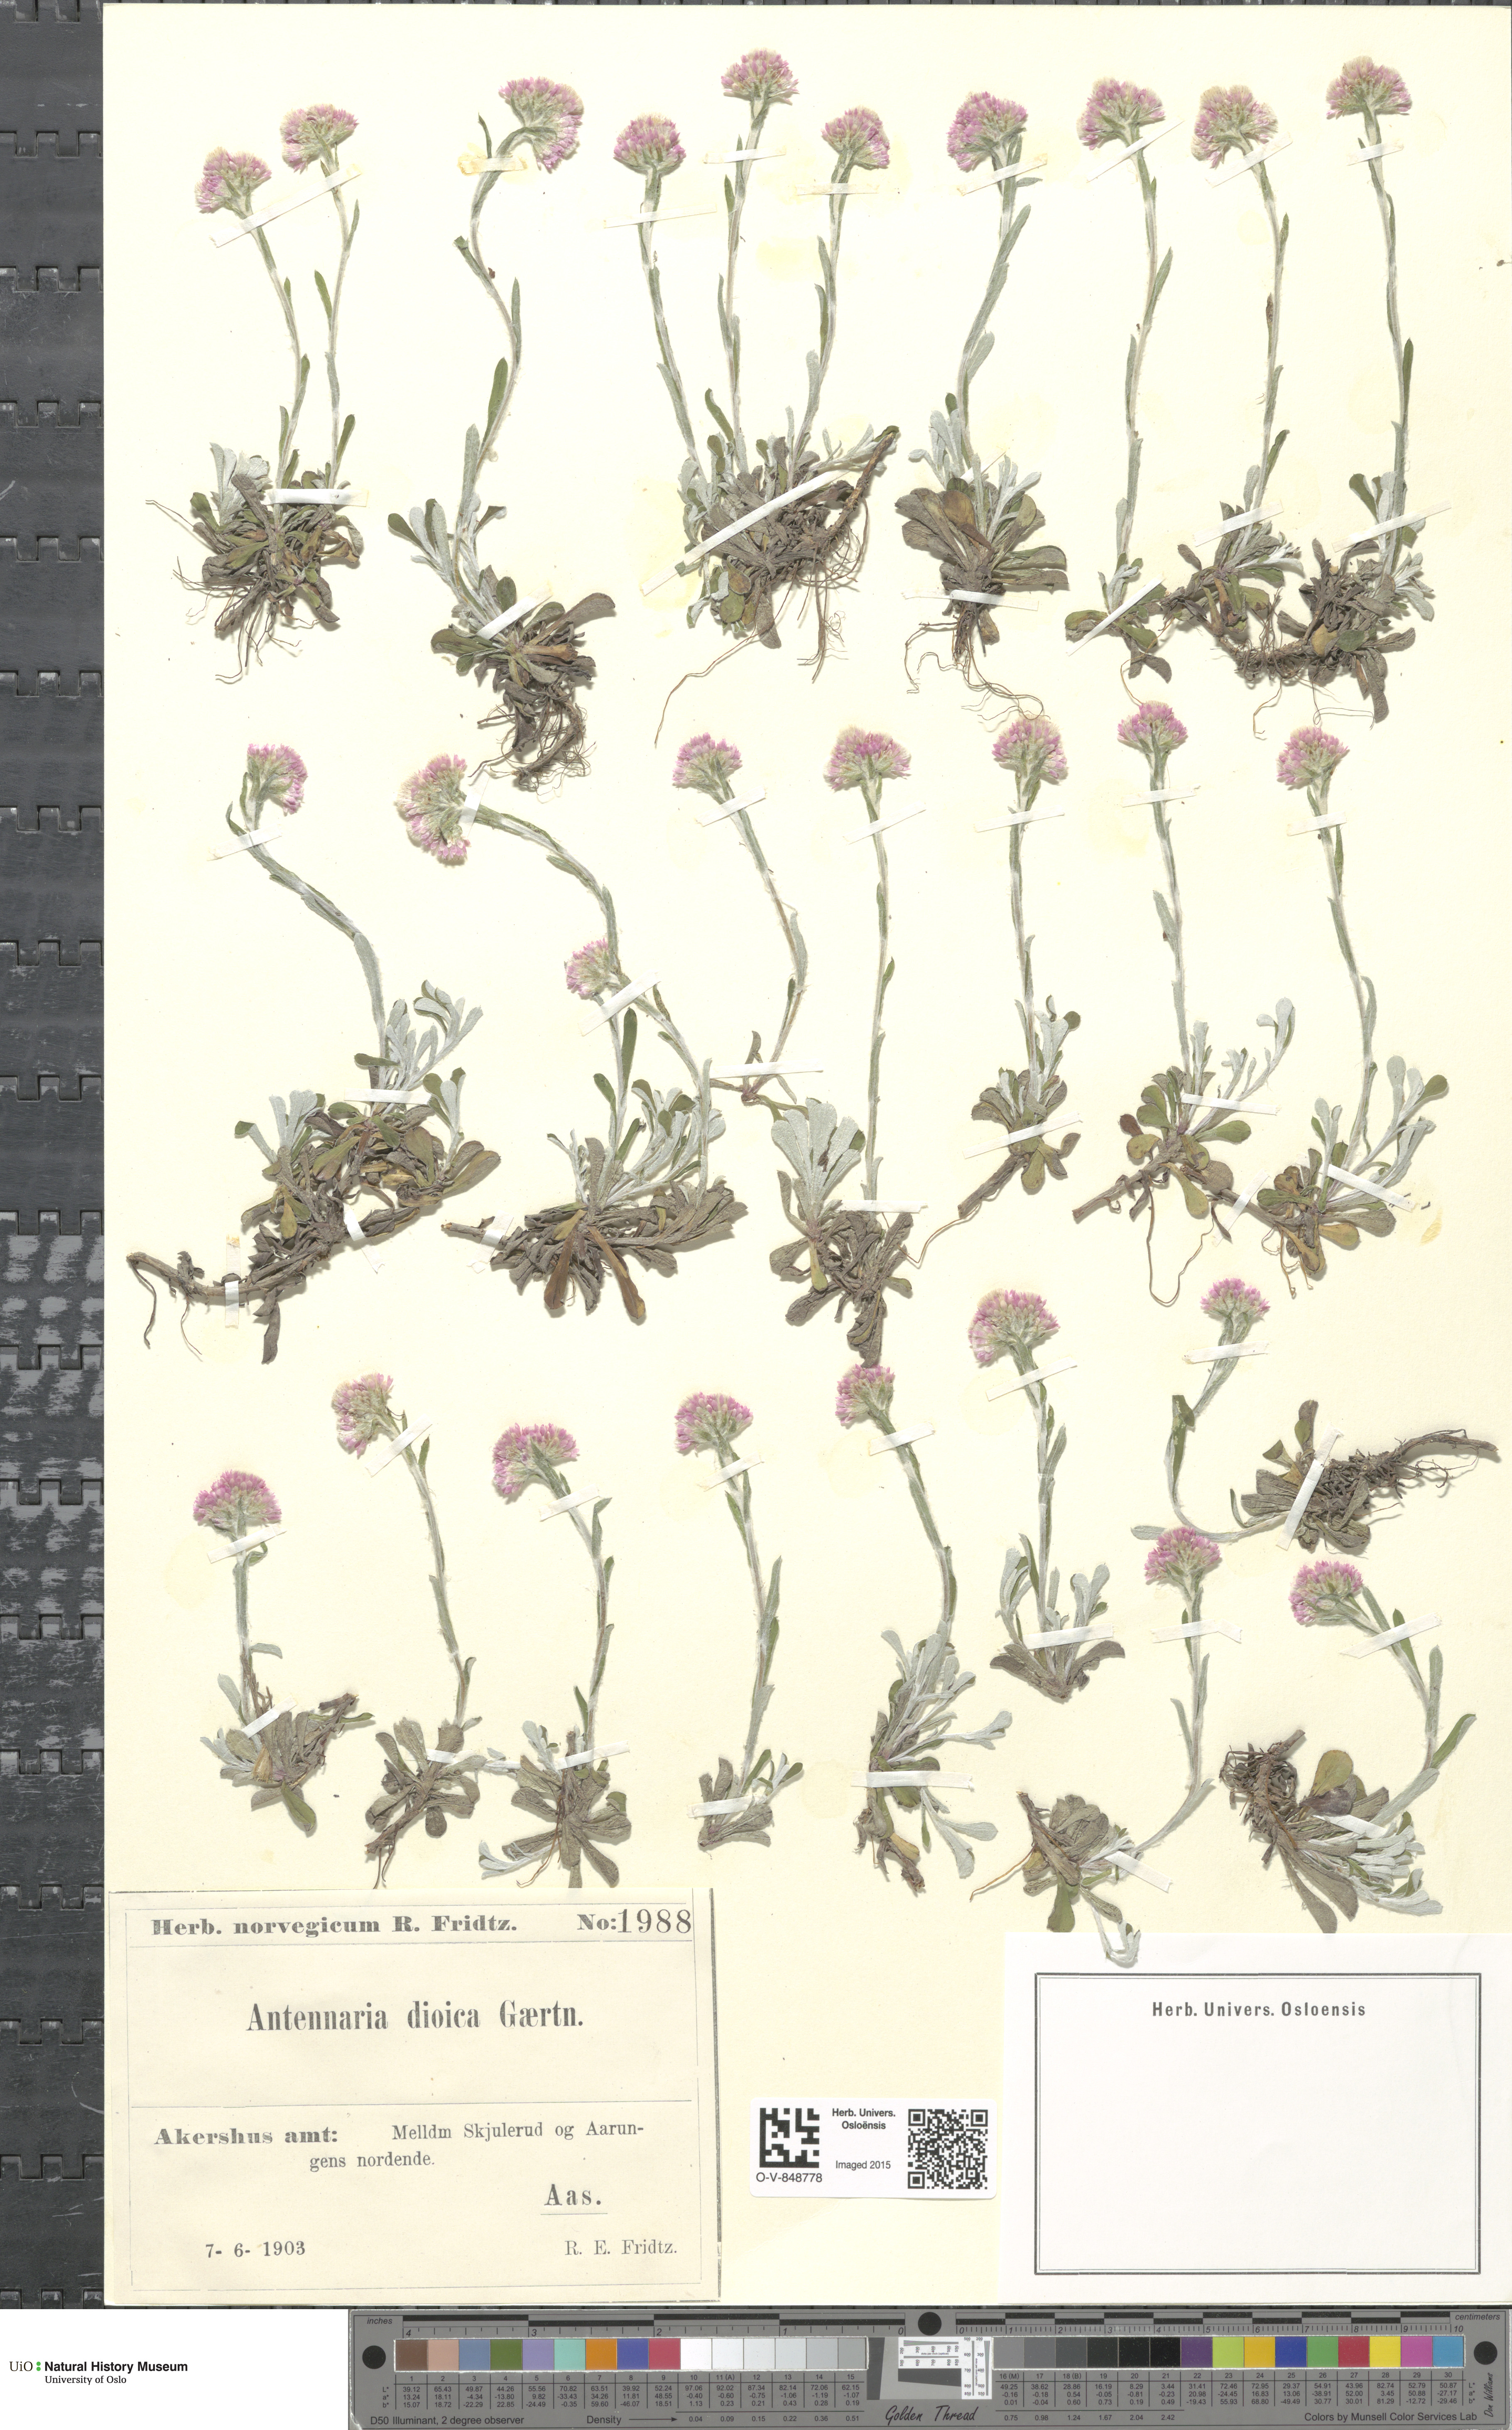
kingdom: Plantae
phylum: Tracheophyta
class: Magnoliopsida
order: Asterales
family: Asteraceae
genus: Antennaria
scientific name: Antennaria dioica
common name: Mountain everlasting
